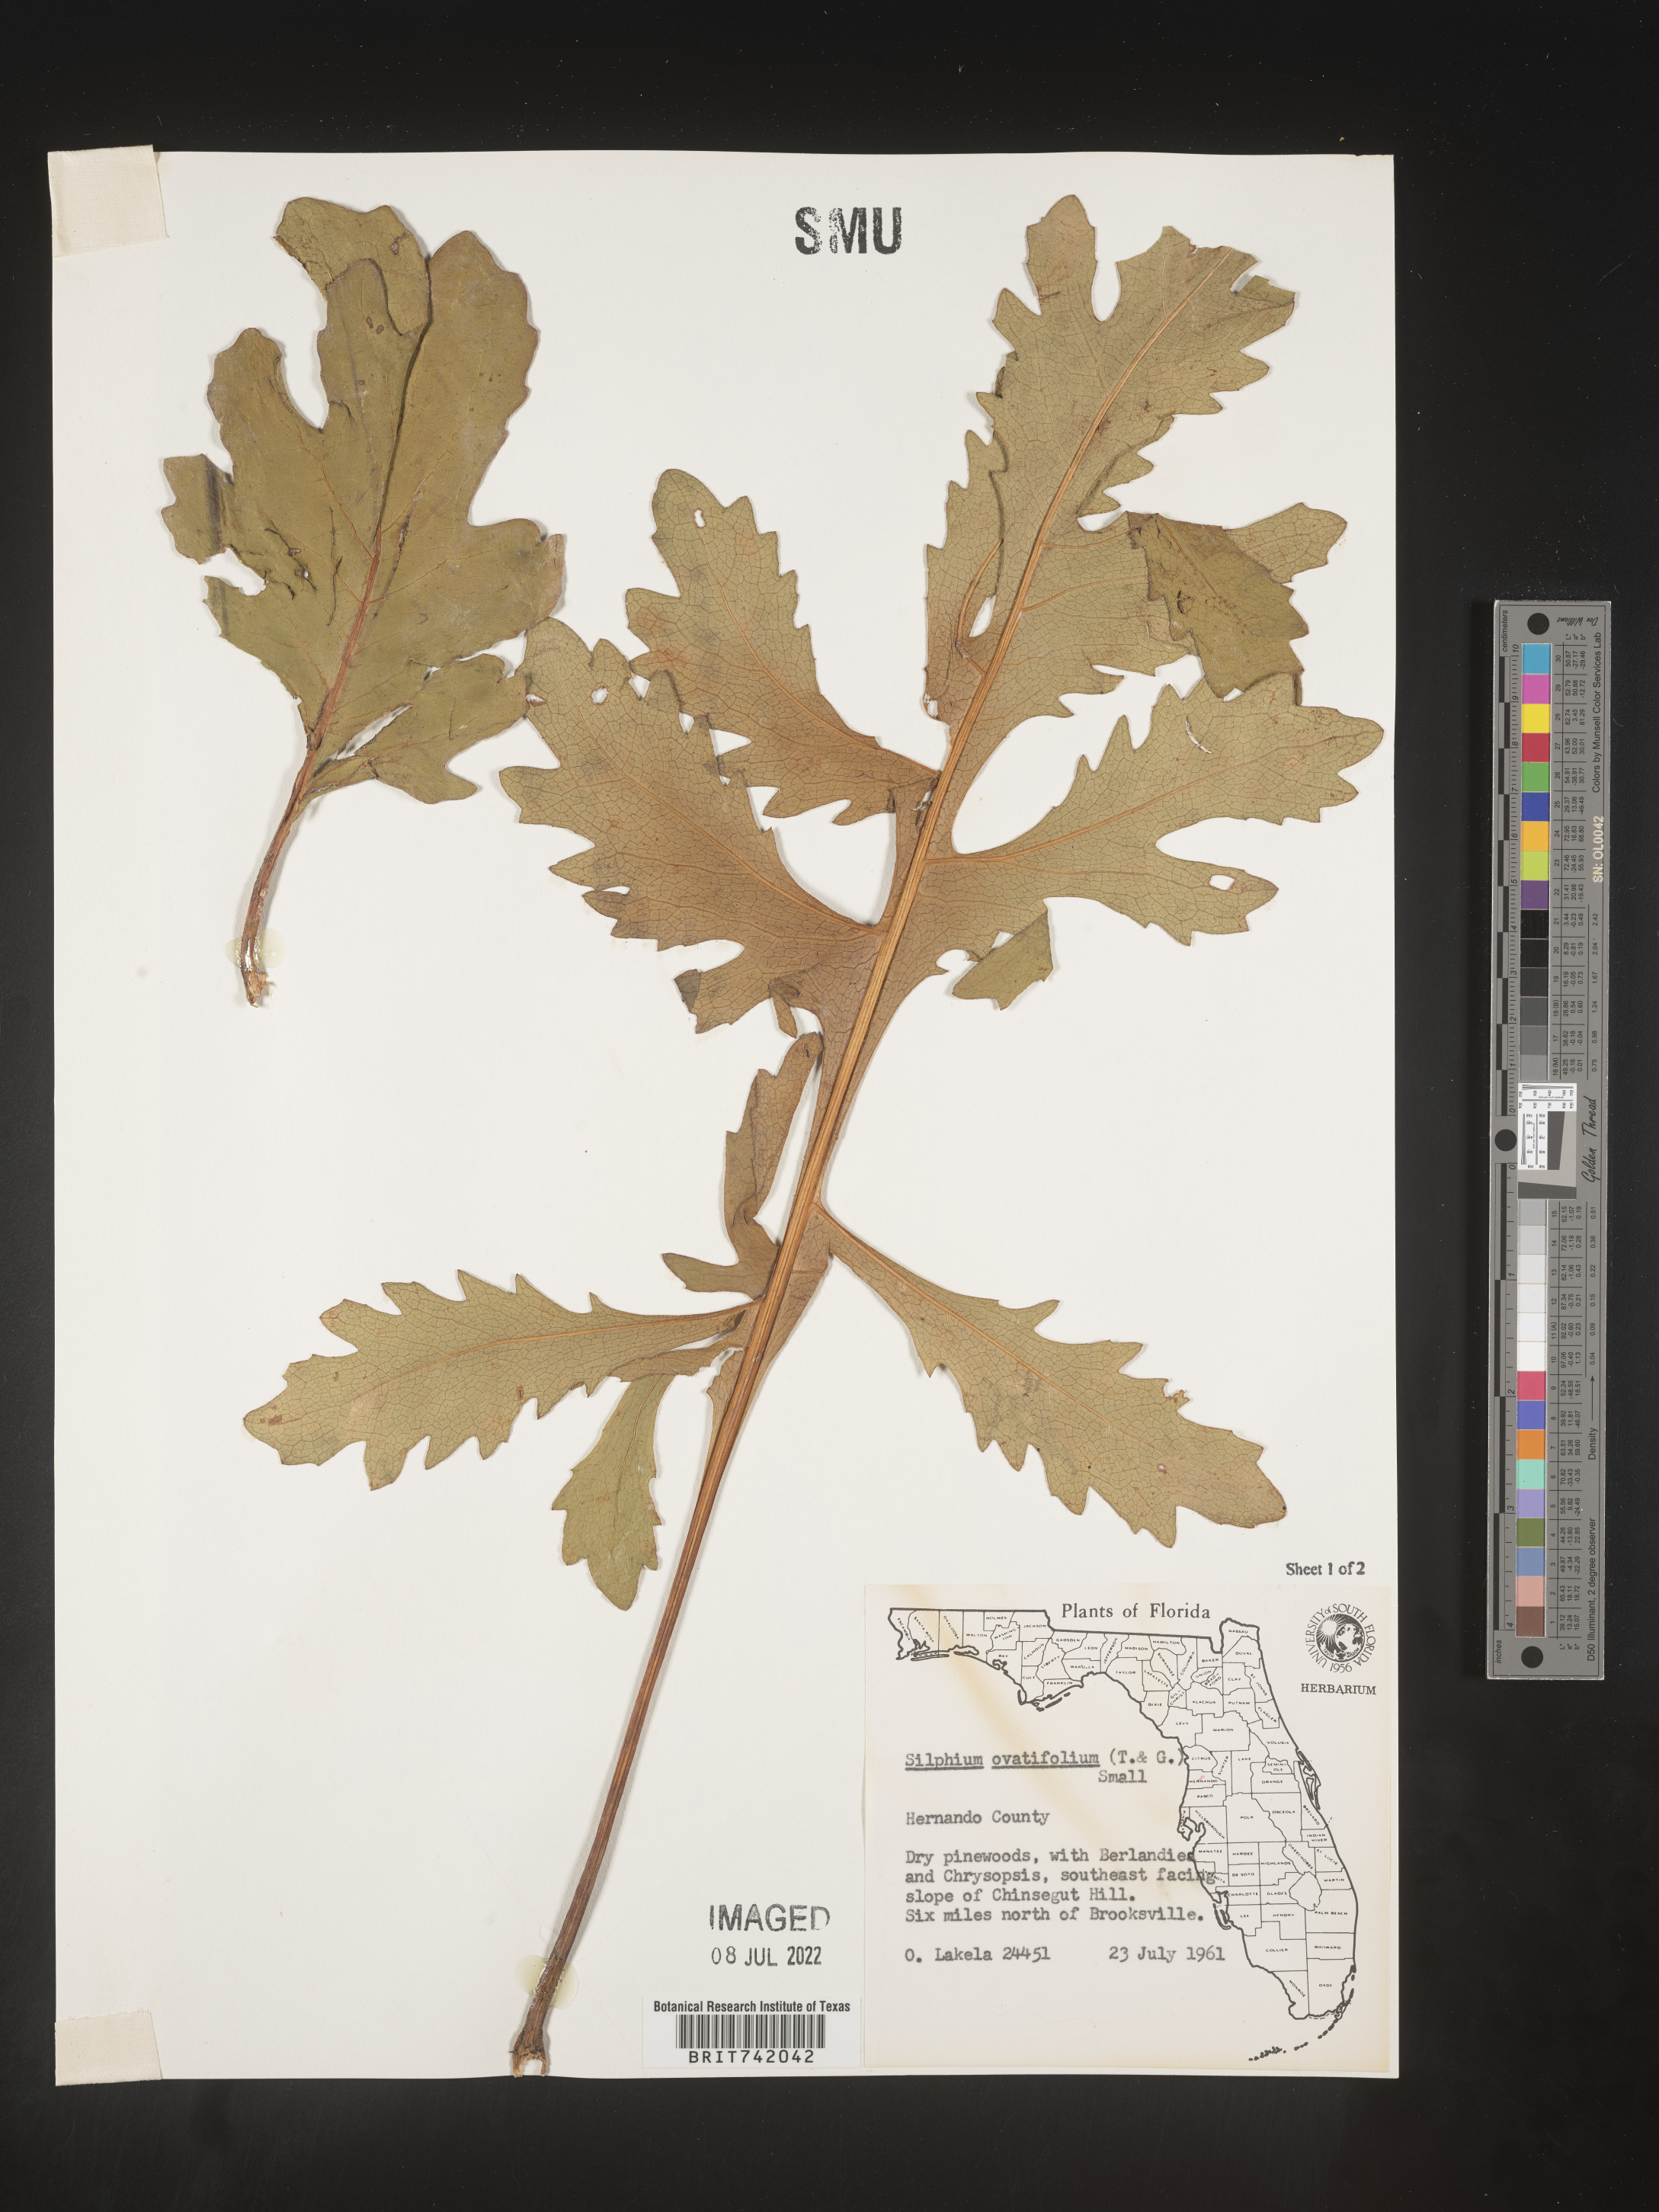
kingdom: Plantae
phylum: Tracheophyta
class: Magnoliopsida
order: Asterales
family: Asteraceae
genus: Silphium
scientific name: Silphium compositum
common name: Lesser basal-leaf rosinweed
